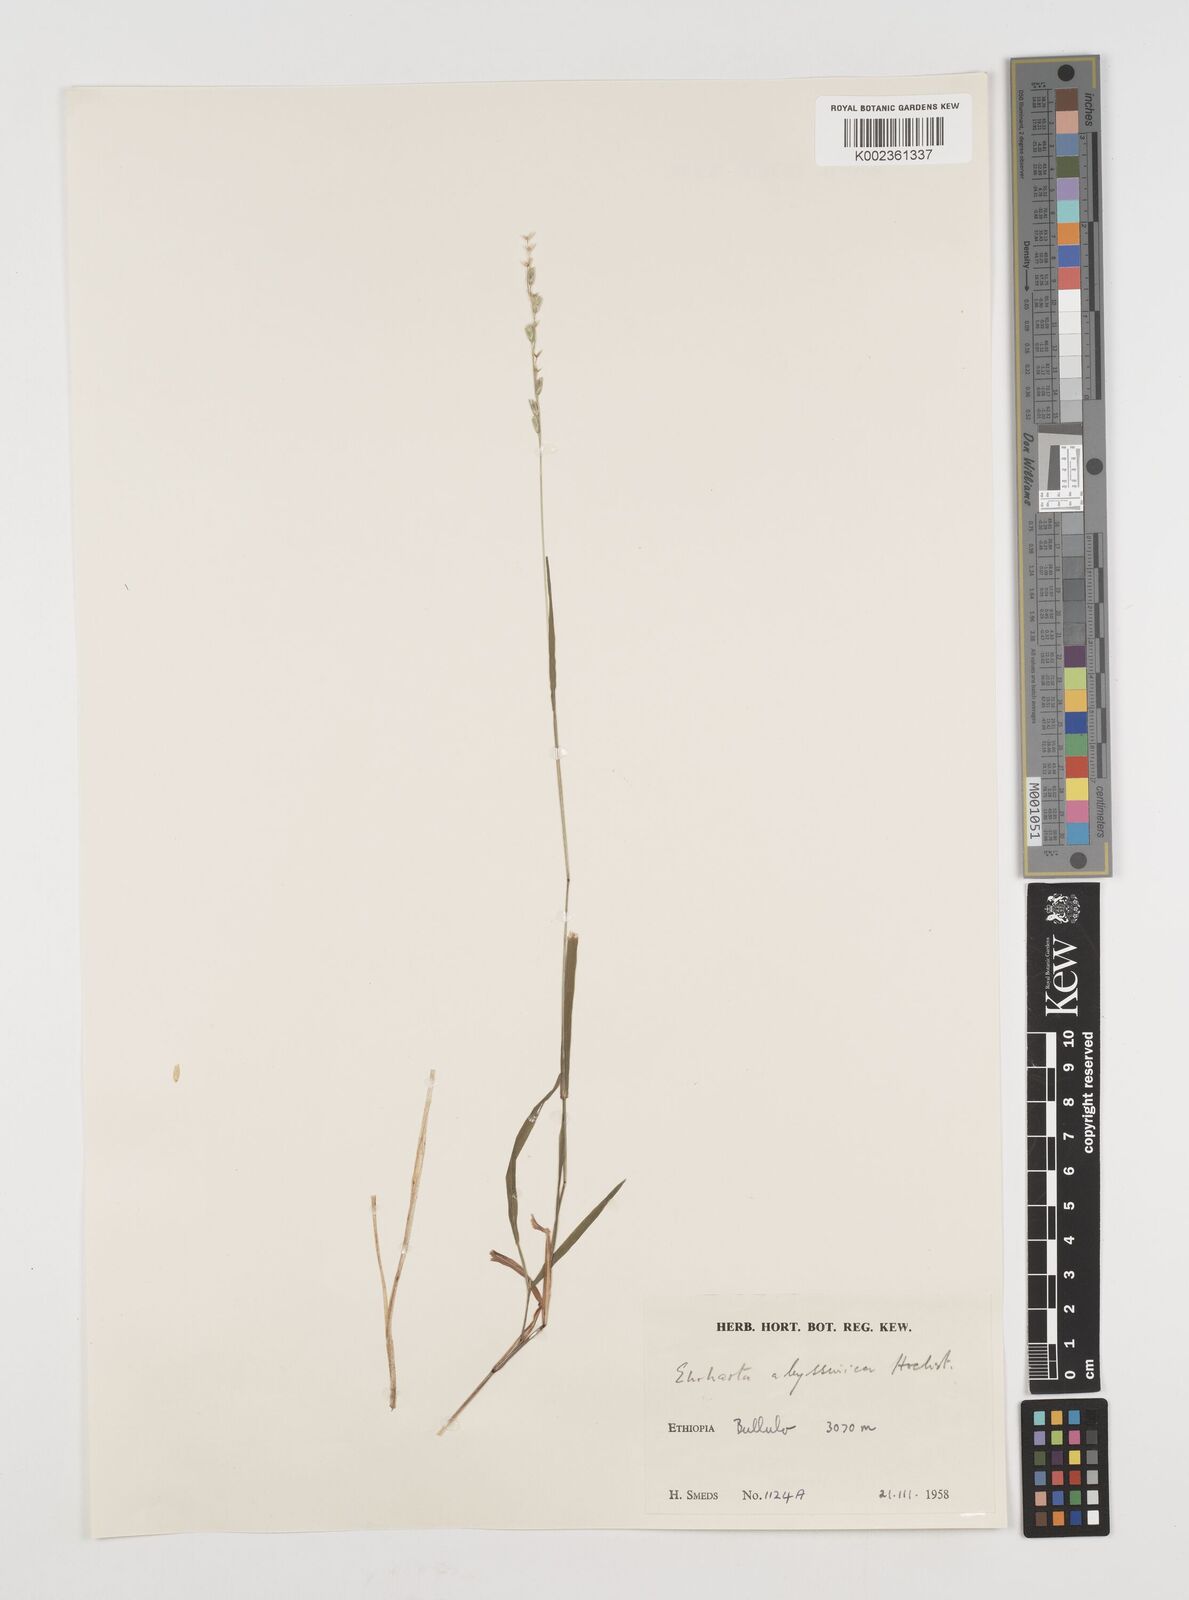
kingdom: Plantae
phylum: Tracheophyta
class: Liliopsida
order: Poales
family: Poaceae
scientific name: Poaceae
